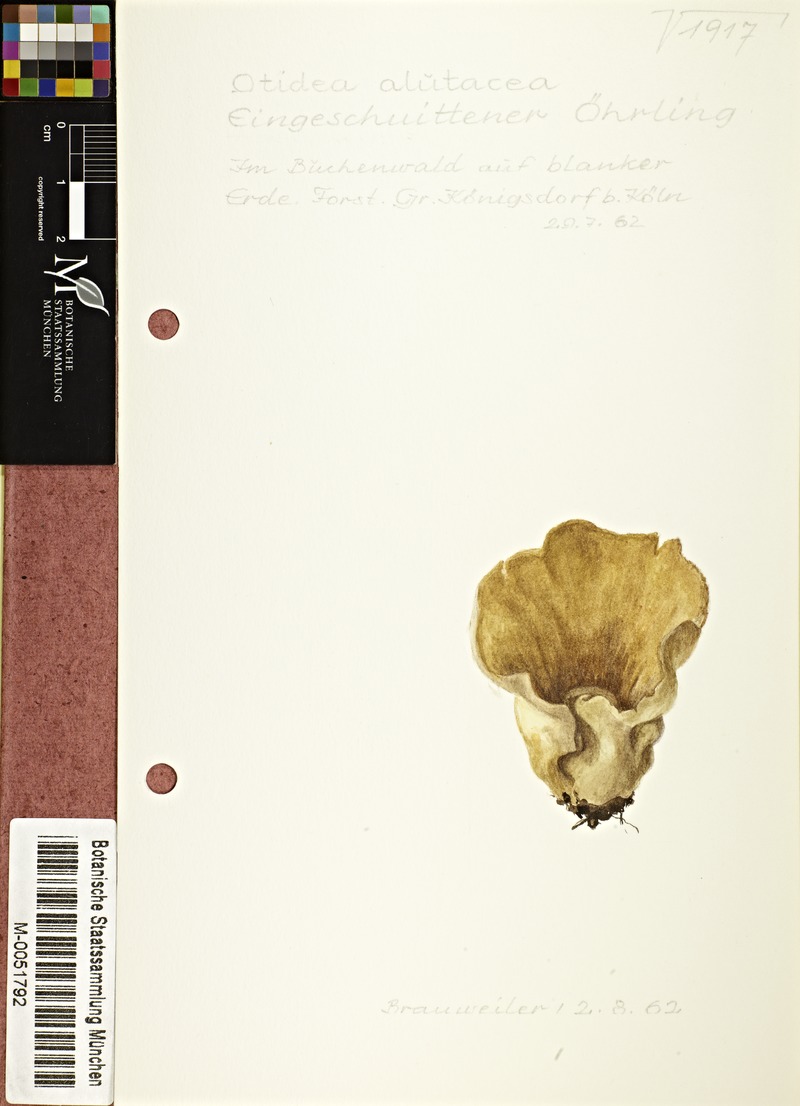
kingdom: Fungi
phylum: Ascomycota
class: Pezizomycetes
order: Pezizales
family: Otideaceae
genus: Otidea
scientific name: Otidea alutacea
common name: Tan ear
